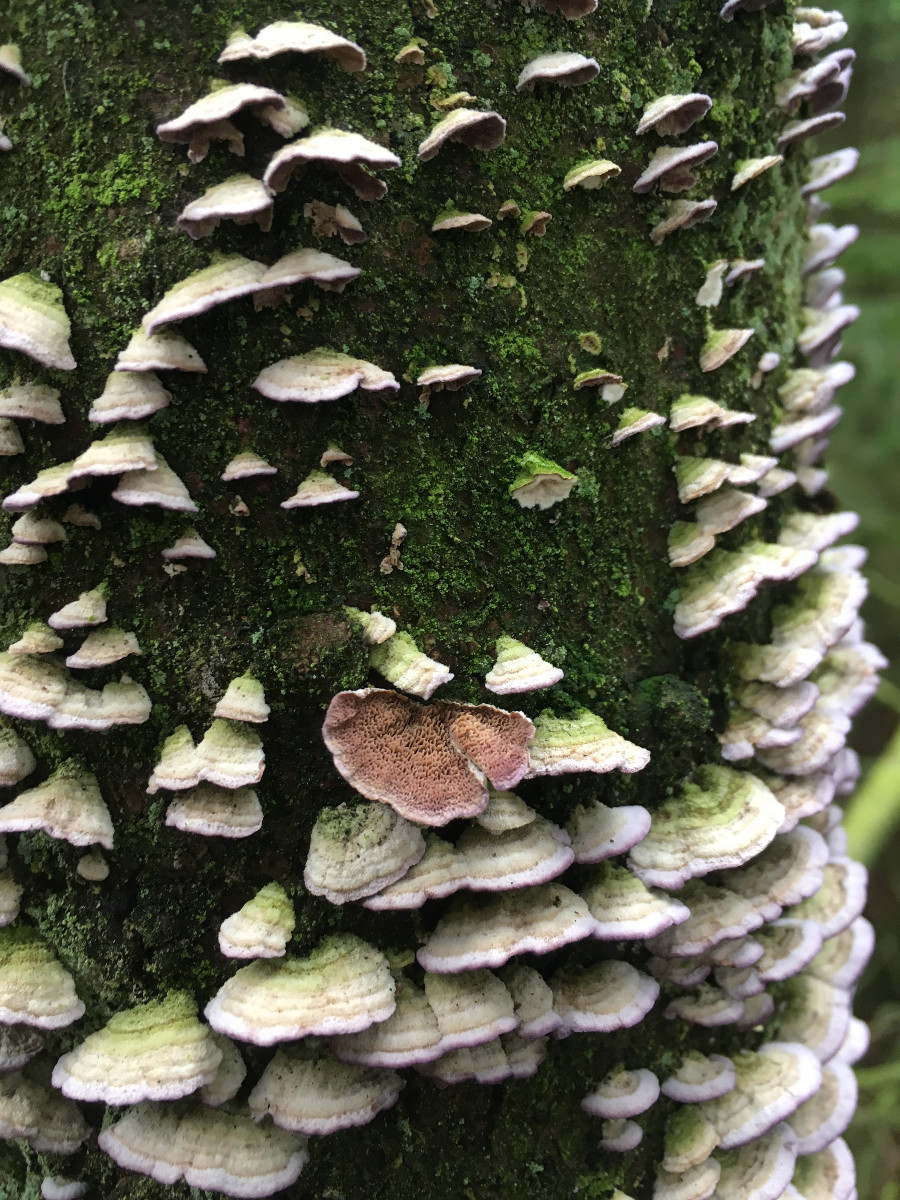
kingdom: Fungi
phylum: Basidiomycota
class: Agaricomycetes
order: Hymenochaetales
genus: Trichaptum
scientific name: Trichaptum abietinum
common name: almindelig violporesvamp
